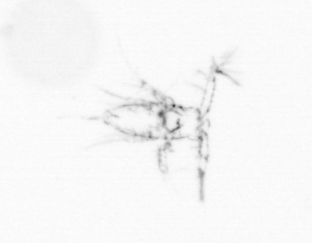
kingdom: Chromista
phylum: Ochrophyta
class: Bacillariophyceae
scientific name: Bacillariophyceae
